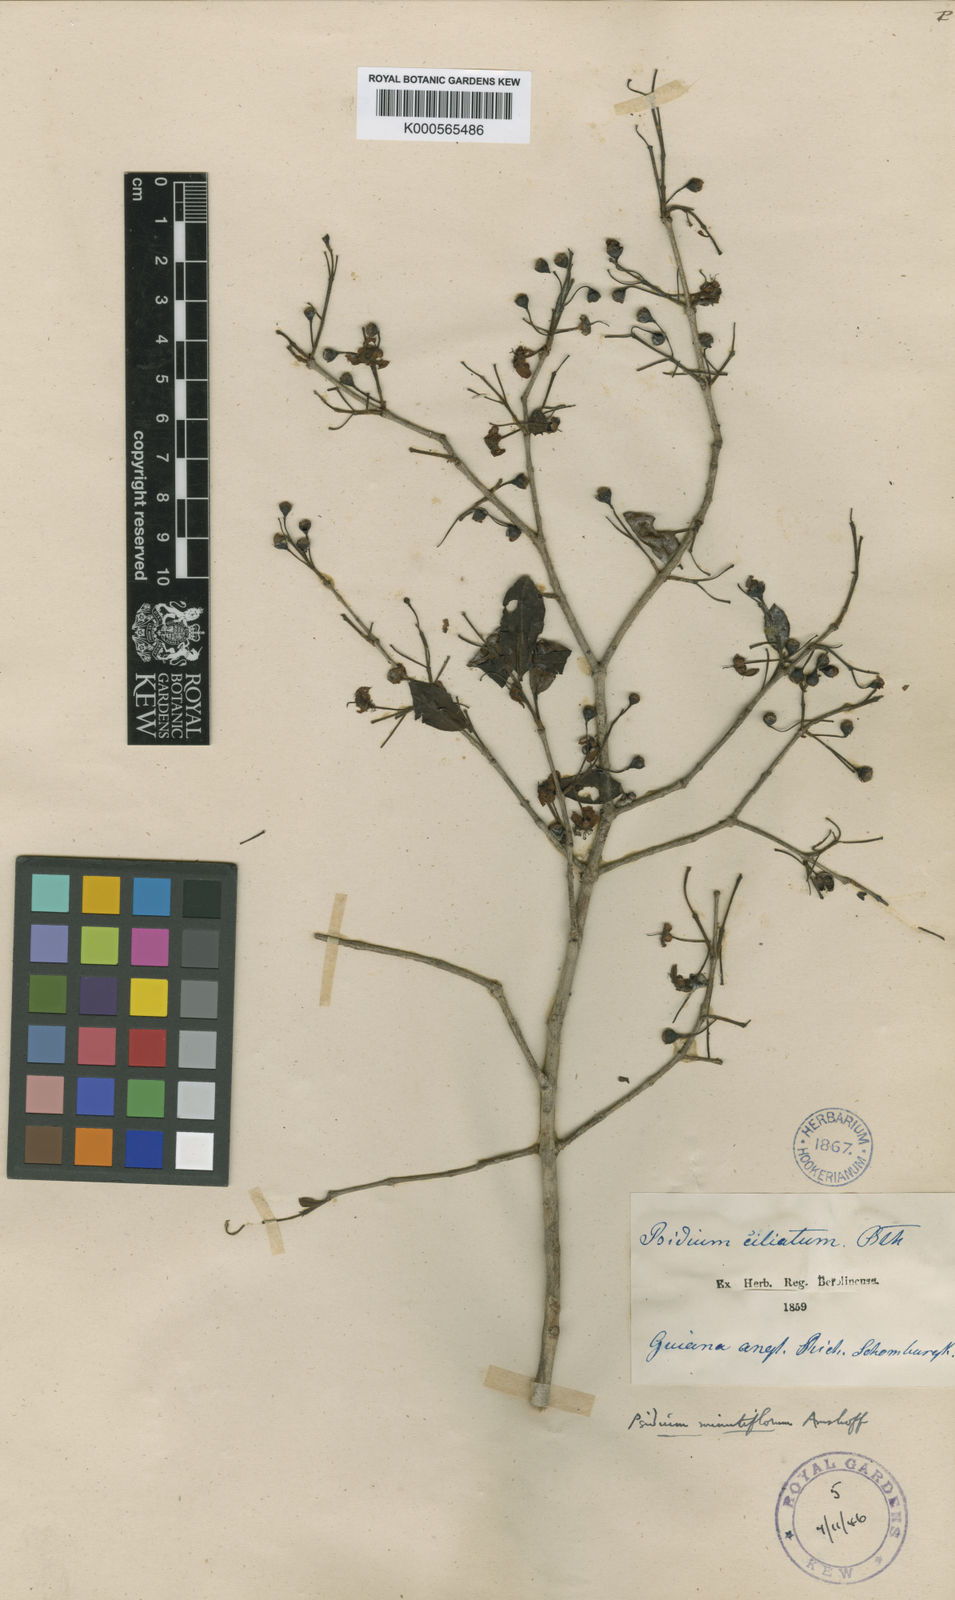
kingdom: Plantae
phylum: Tracheophyta
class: Magnoliopsida
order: Myrtales
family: Myrtaceae
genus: Psidium
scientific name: Psidium minutiflorum
